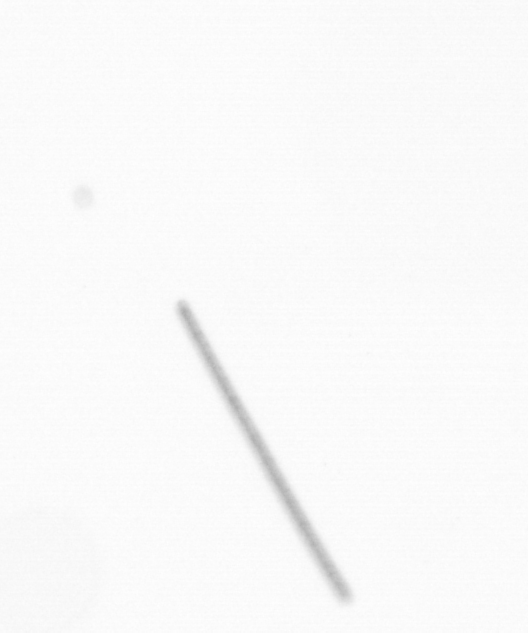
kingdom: Chromista
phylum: Ochrophyta
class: Bacillariophyceae
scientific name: Bacillariophyceae
